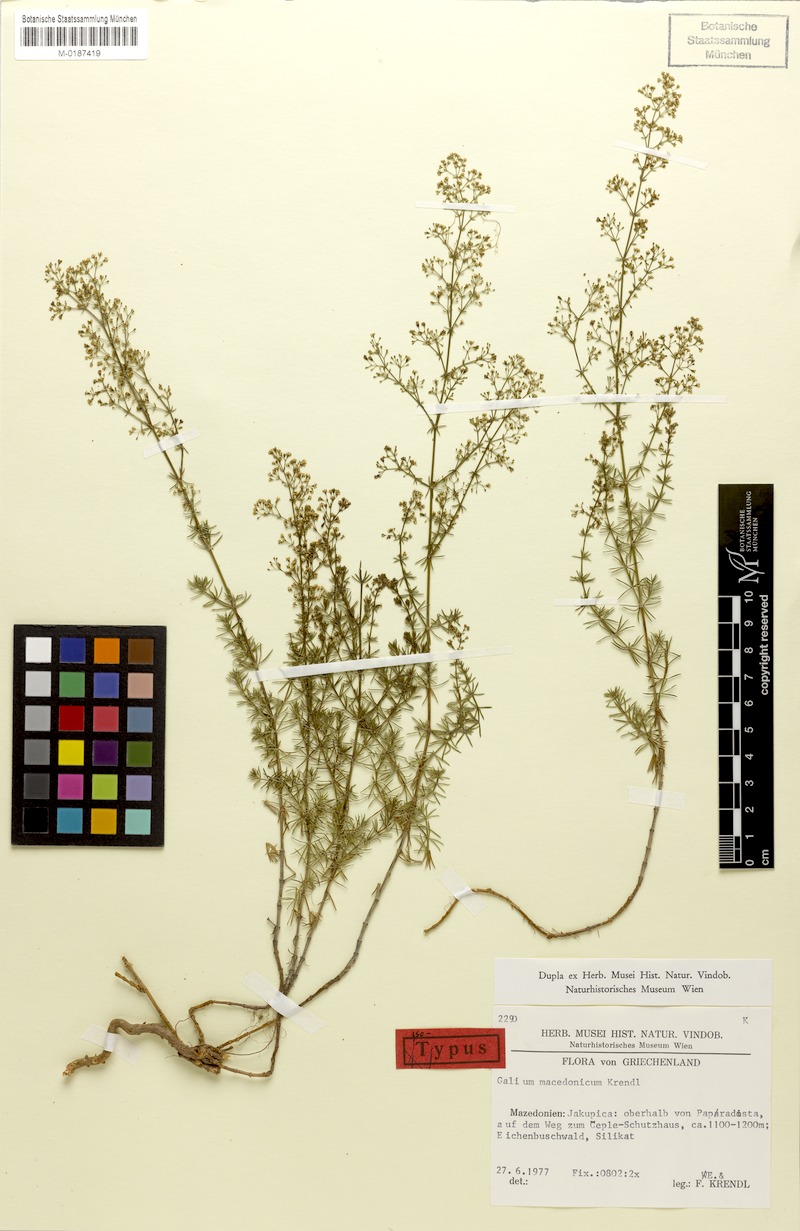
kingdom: Plantae
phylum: Tracheophyta
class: Magnoliopsida
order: Gentianales
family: Rubiaceae
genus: Galium
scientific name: Galium macedonicum
